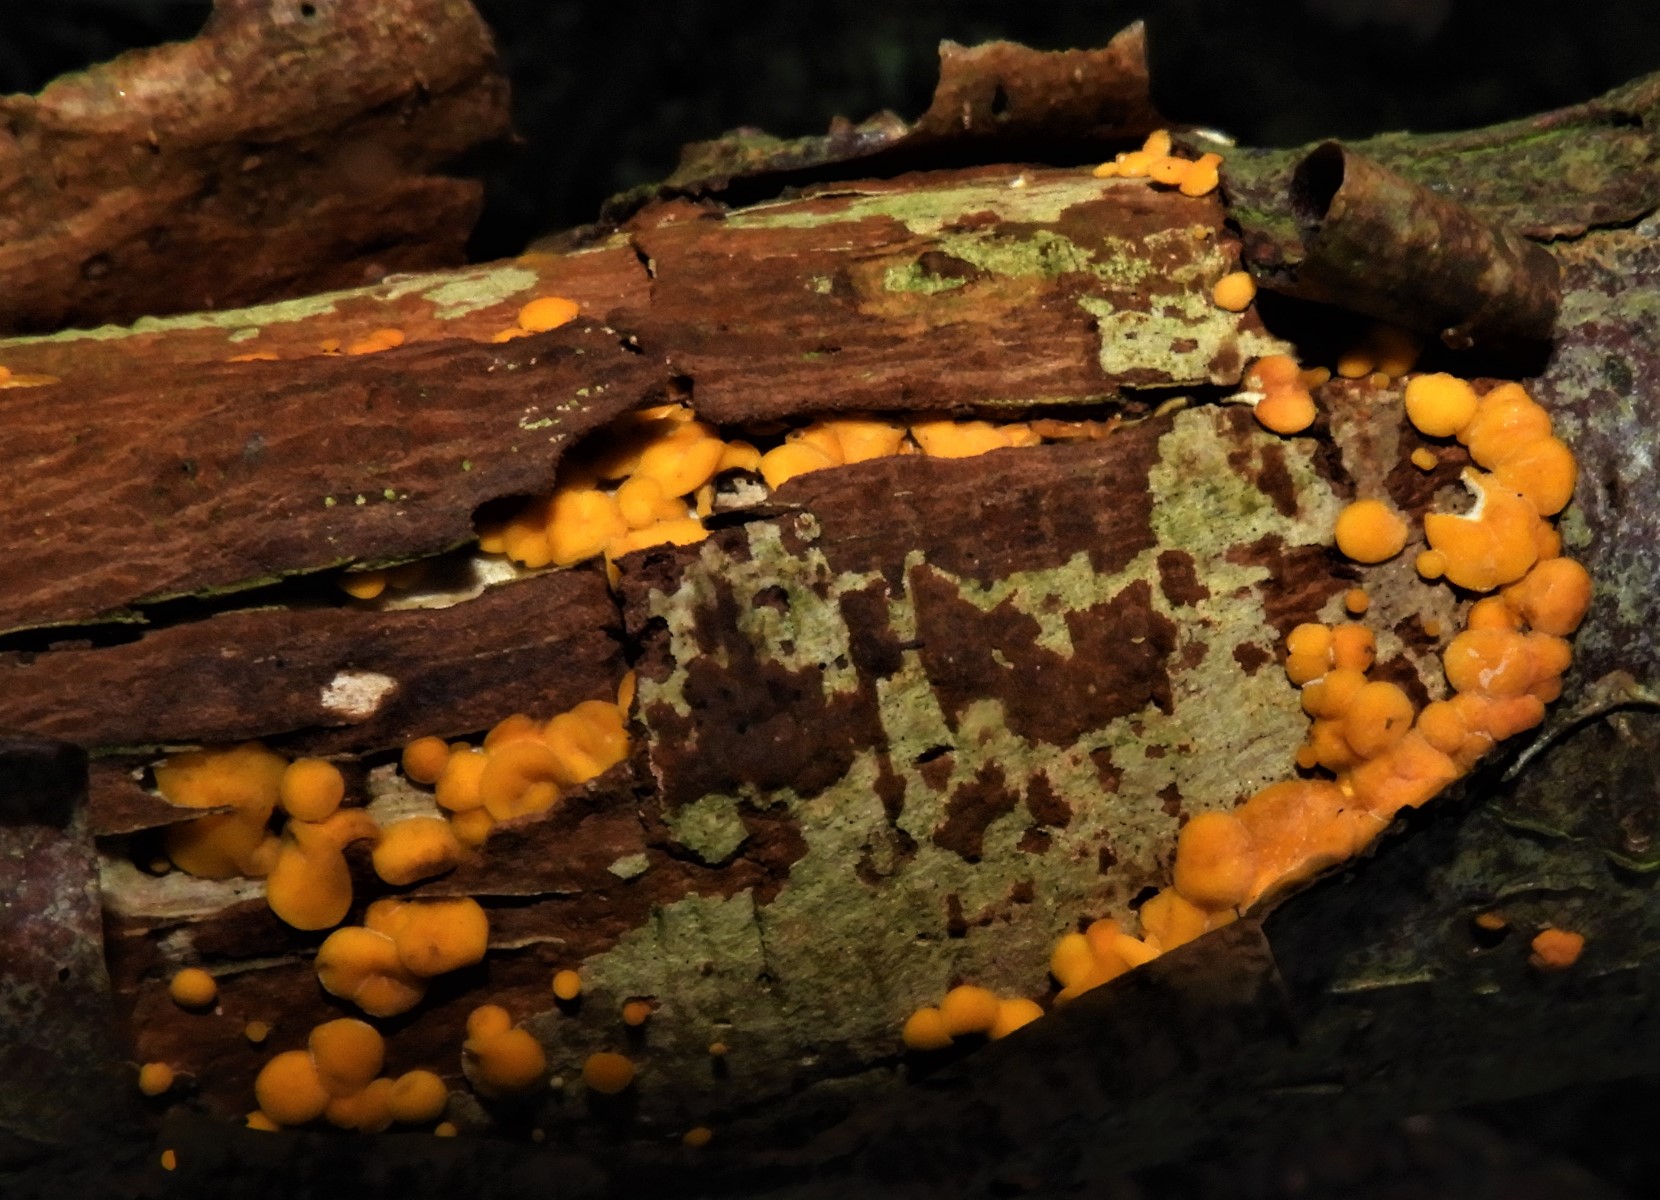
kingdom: Fungi
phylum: Ascomycota
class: Leotiomycetes
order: Helotiales
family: Pezizellaceae
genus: Calycina
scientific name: Calycina citrina
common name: almindelig gulskive
